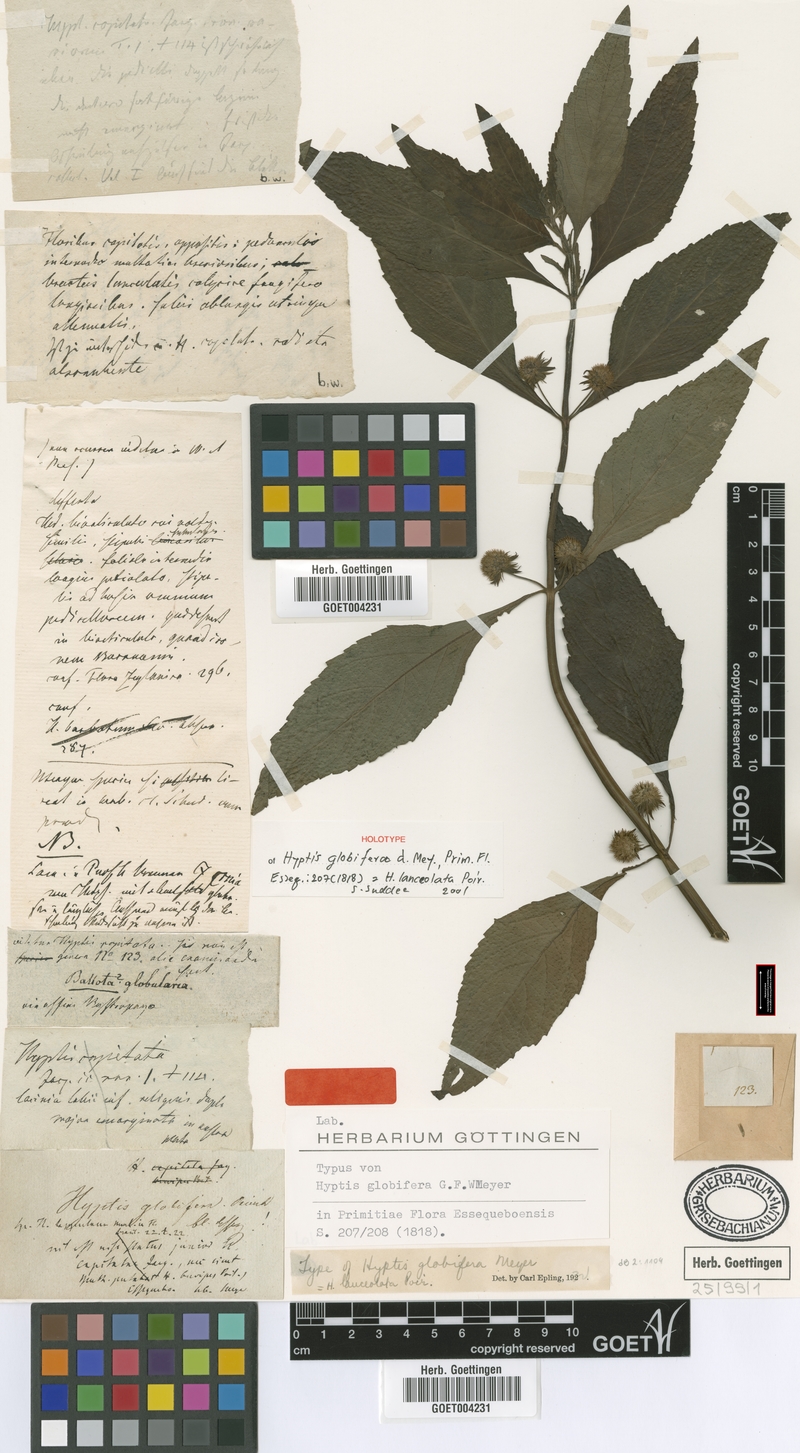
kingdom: Plantae
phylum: Tracheophyta
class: Magnoliopsida
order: Lamiales
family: Lamiaceae
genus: Hyptis
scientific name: Hyptis lanceolata
